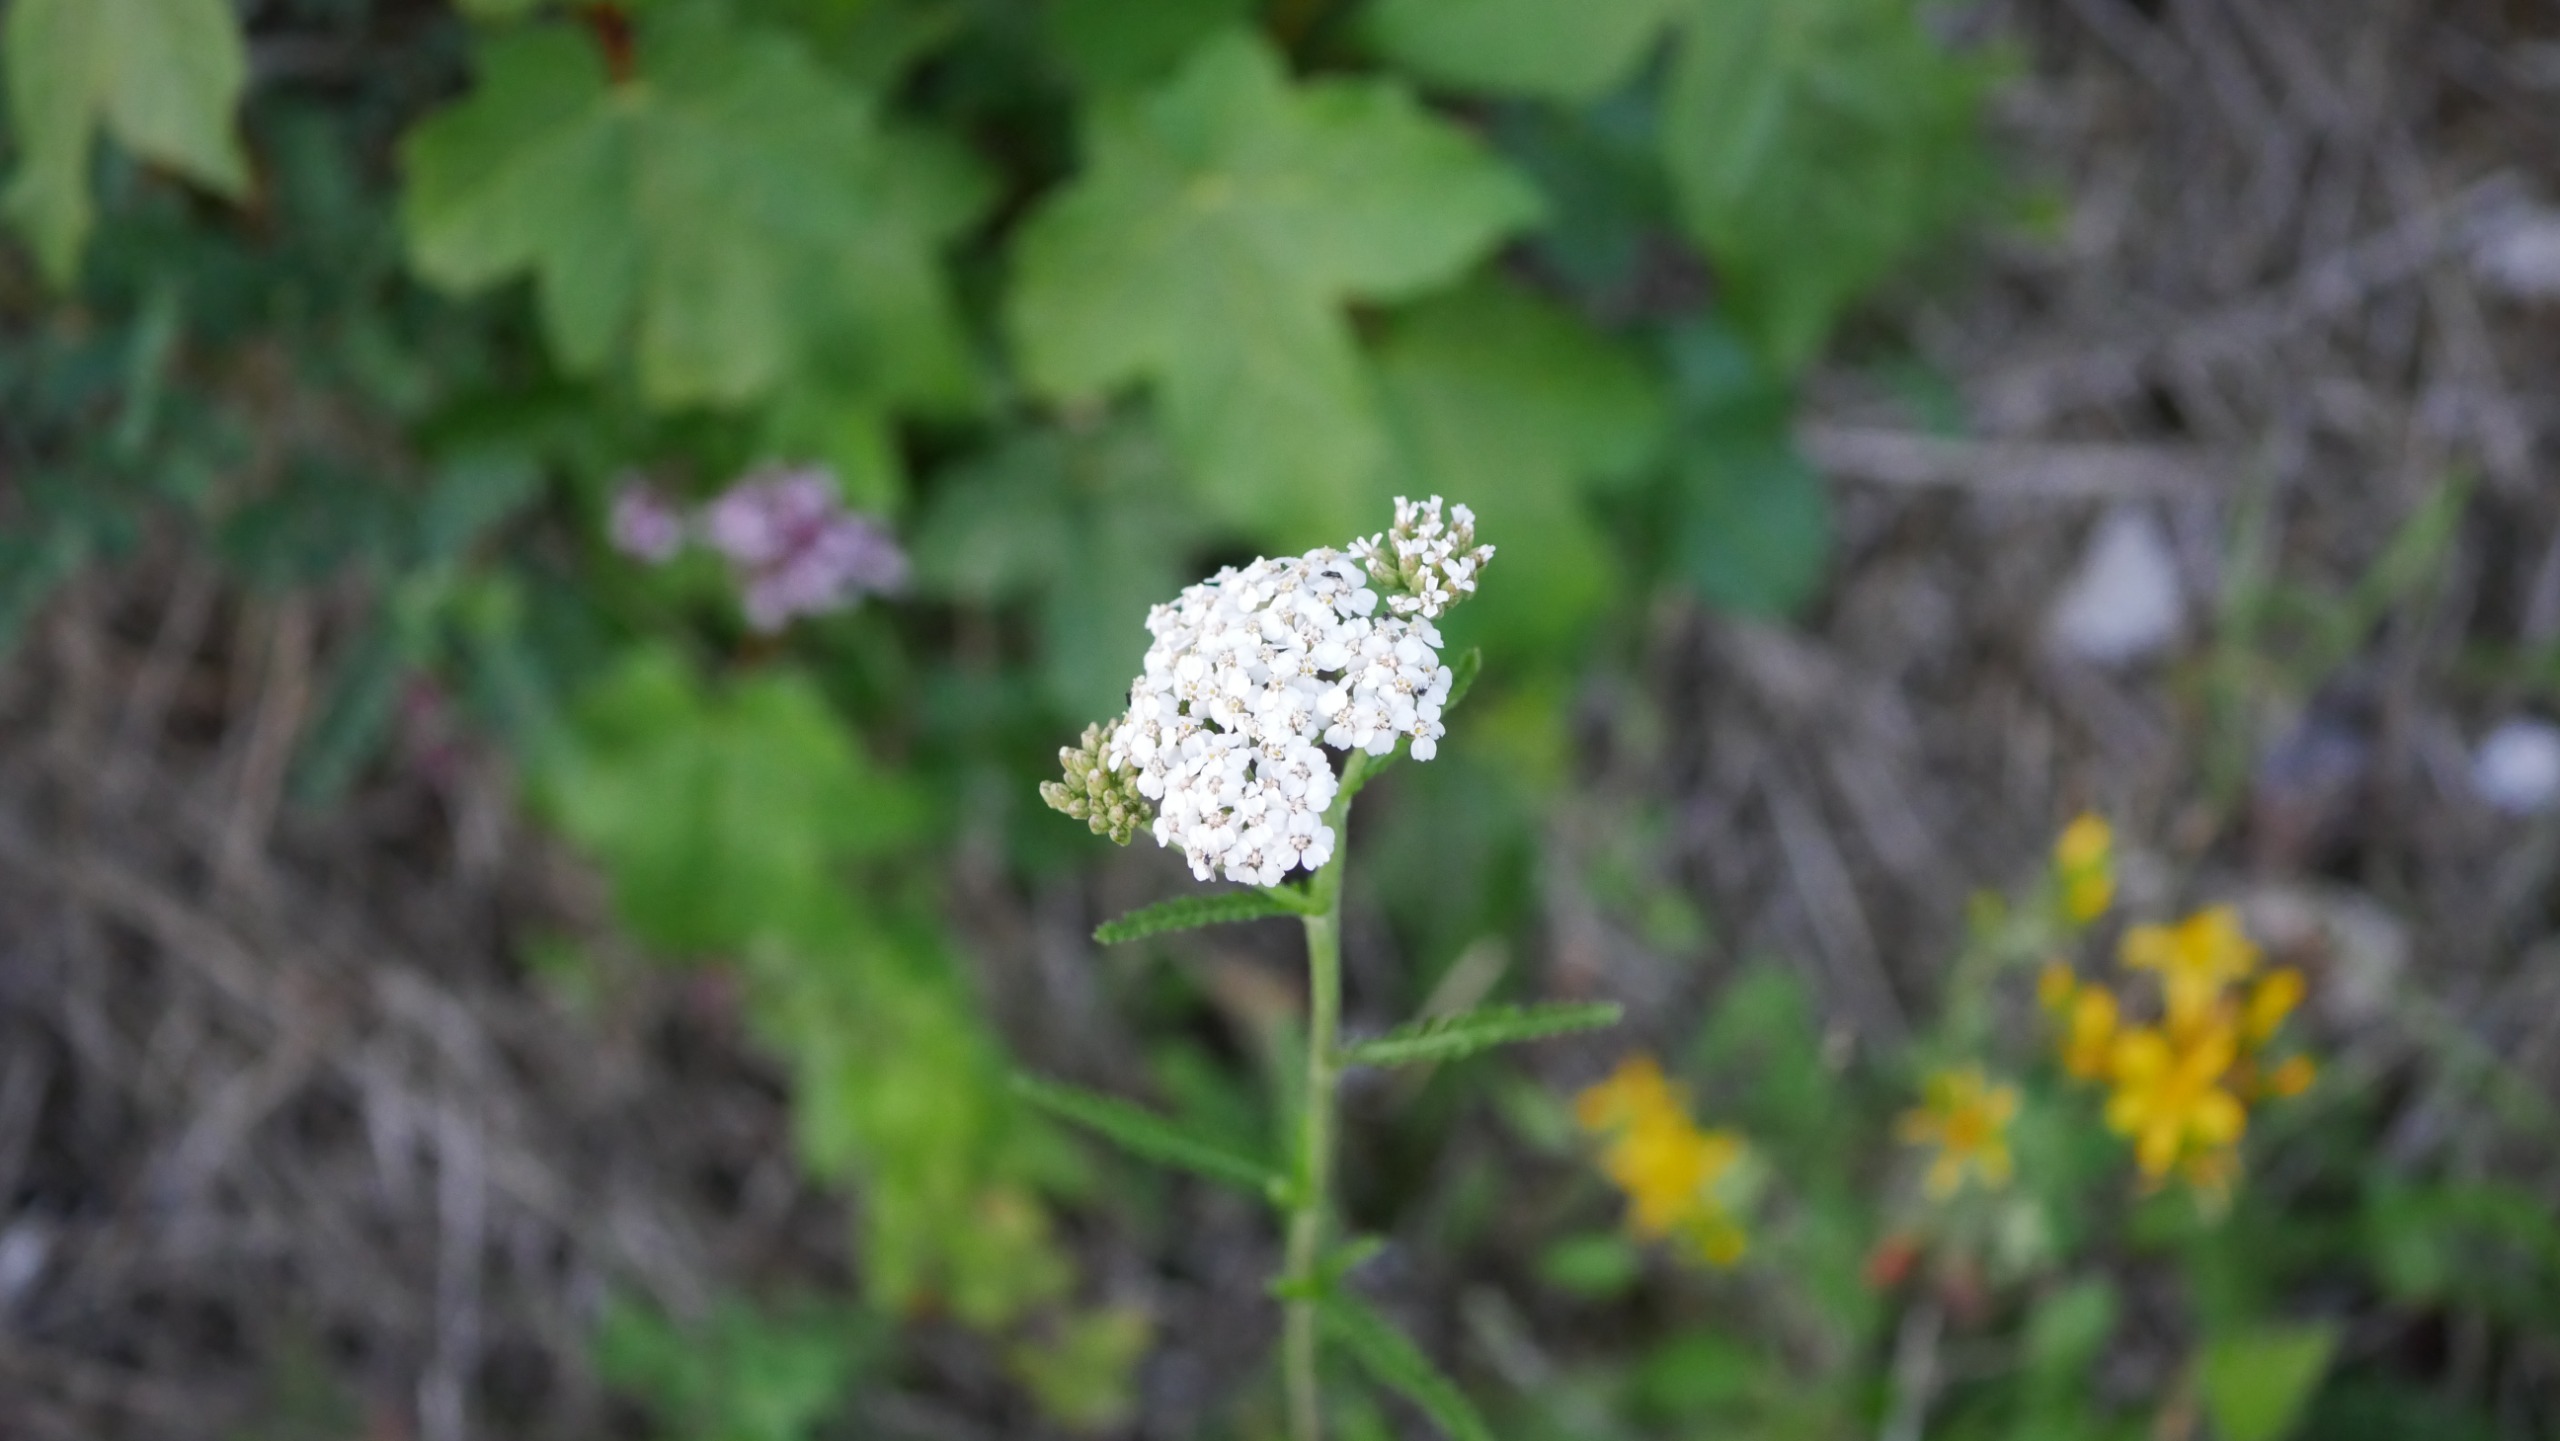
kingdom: Plantae
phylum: Tracheophyta
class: Magnoliopsida
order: Asterales
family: Asteraceae
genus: Achillea
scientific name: Achillea millefolium
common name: Almindelig røllike
